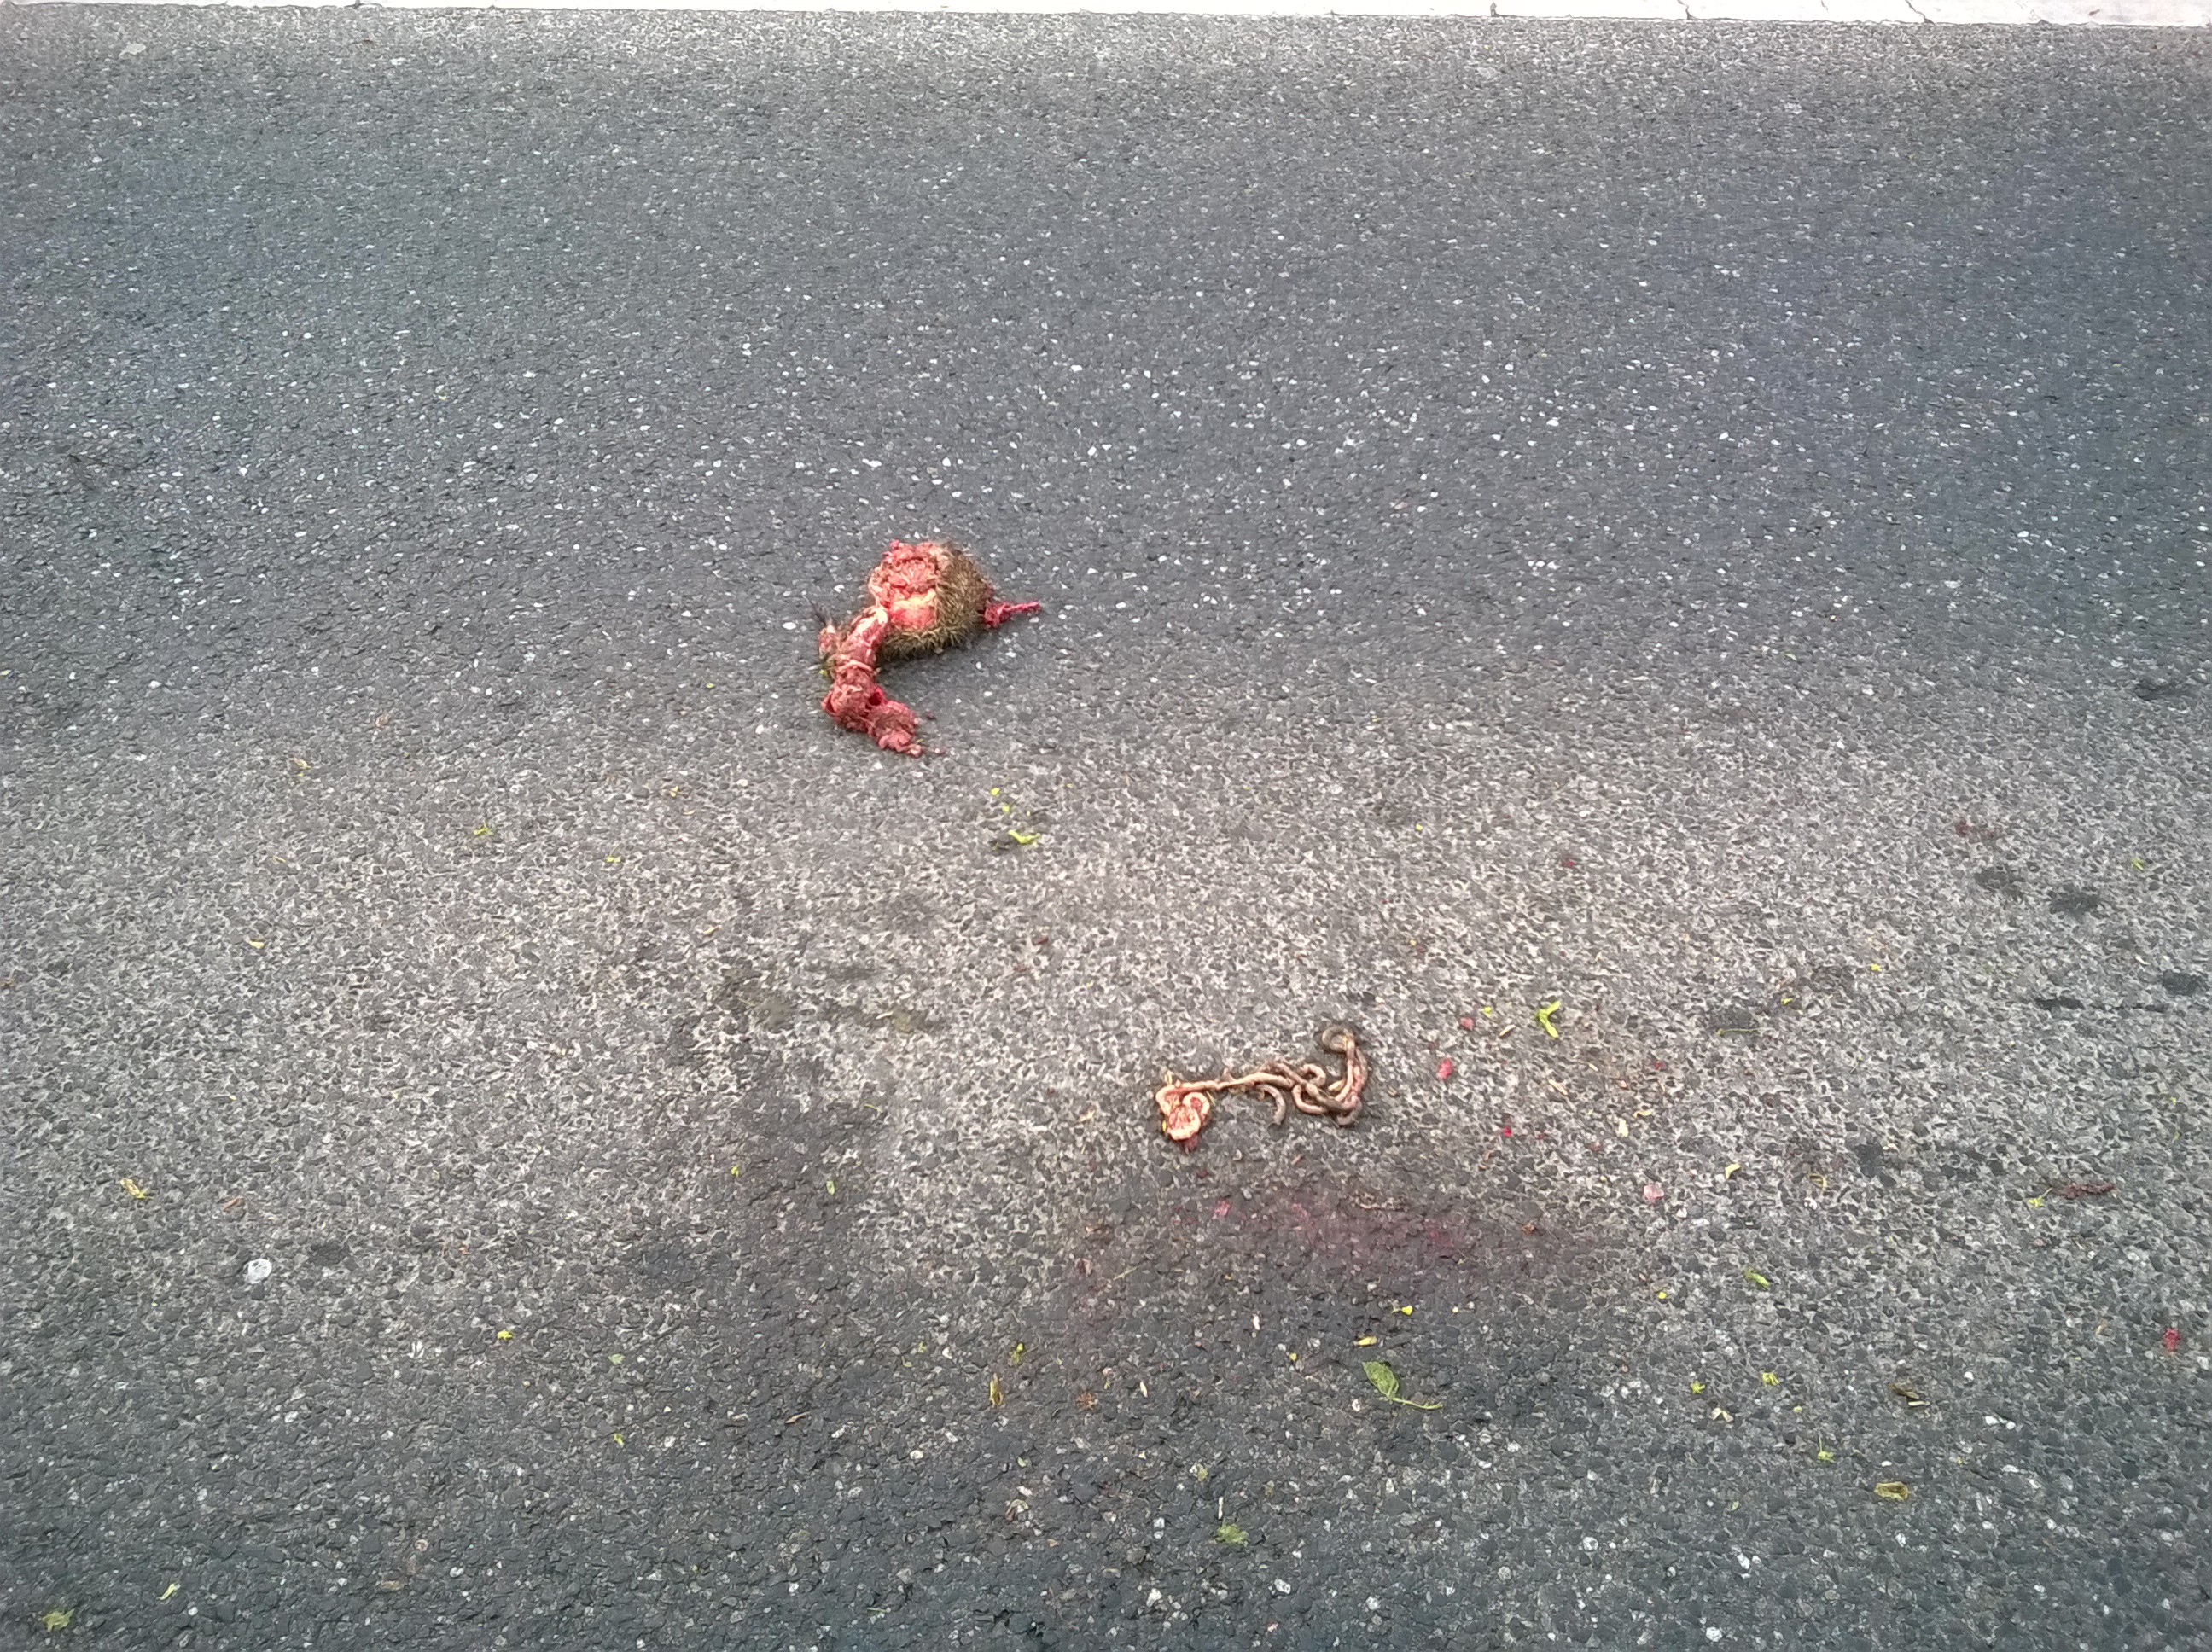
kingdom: Animalia
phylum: Chordata
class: Mammalia
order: Erinaceomorpha
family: Erinaceidae
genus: Erinaceus
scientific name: Erinaceus
